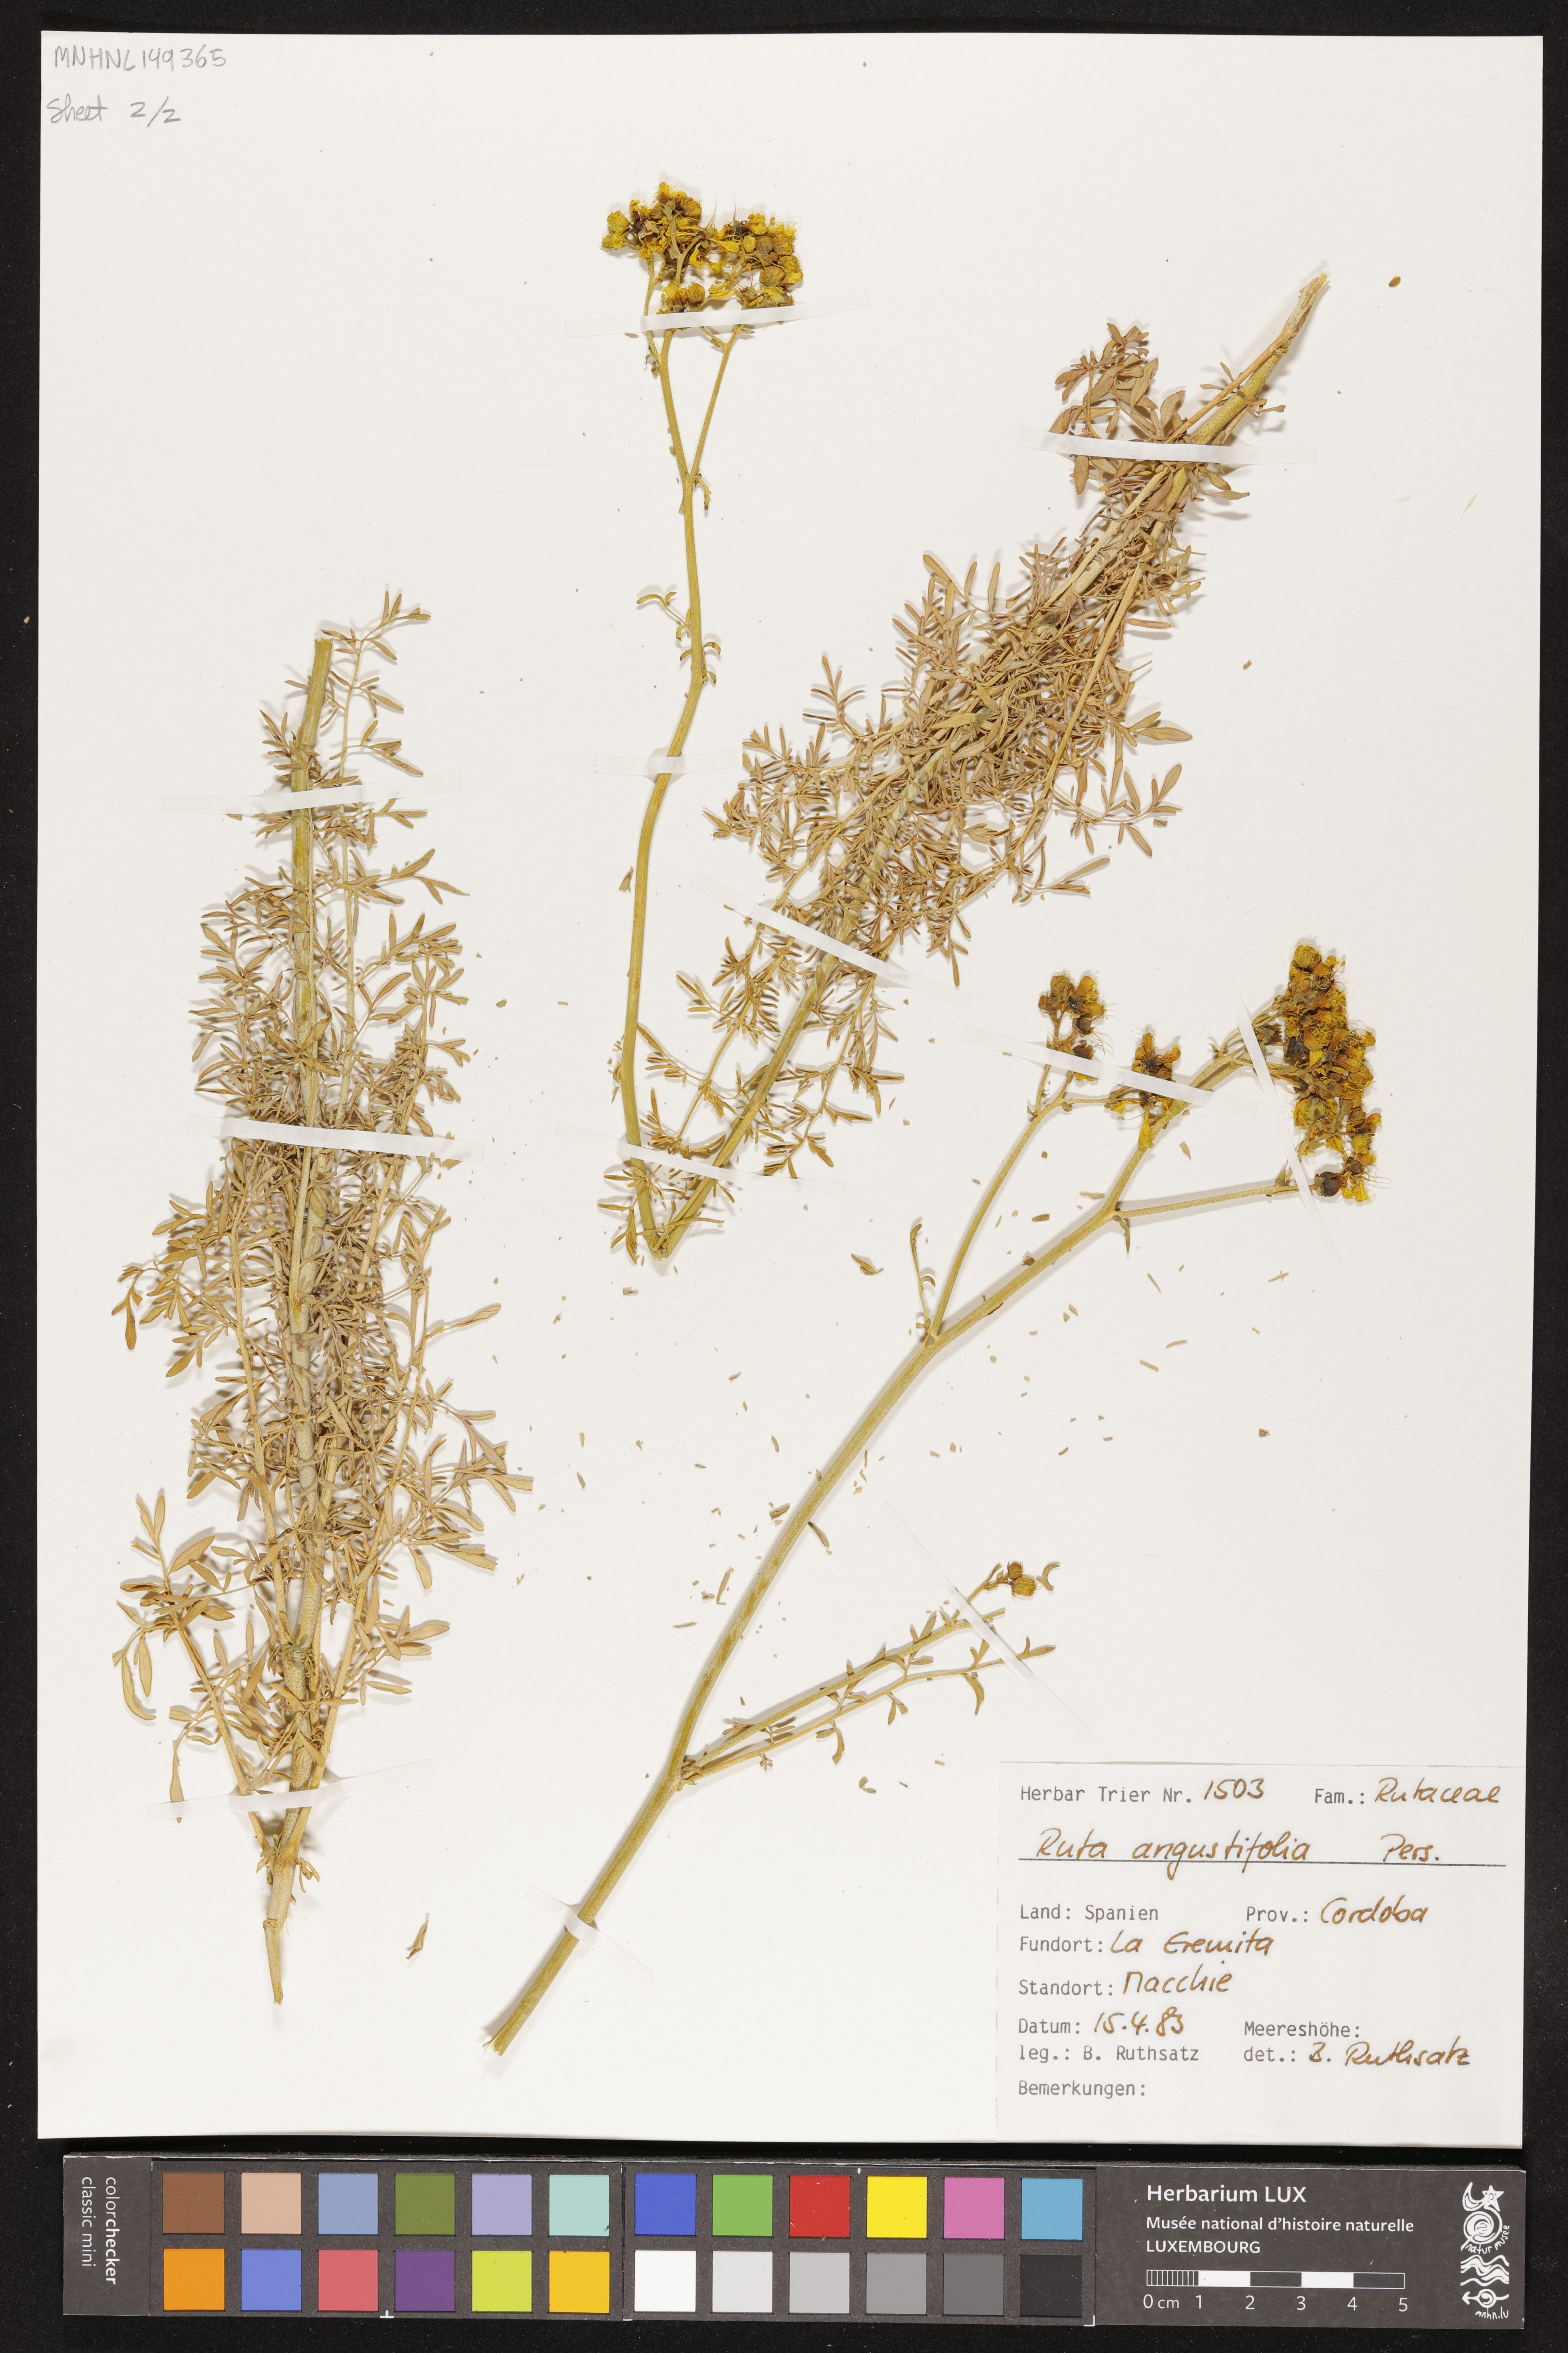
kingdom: Plantae
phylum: Tracheophyta
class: Magnoliopsida
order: Sapindales
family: Rutaceae
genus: Ruta
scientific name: Ruta angustifolia
